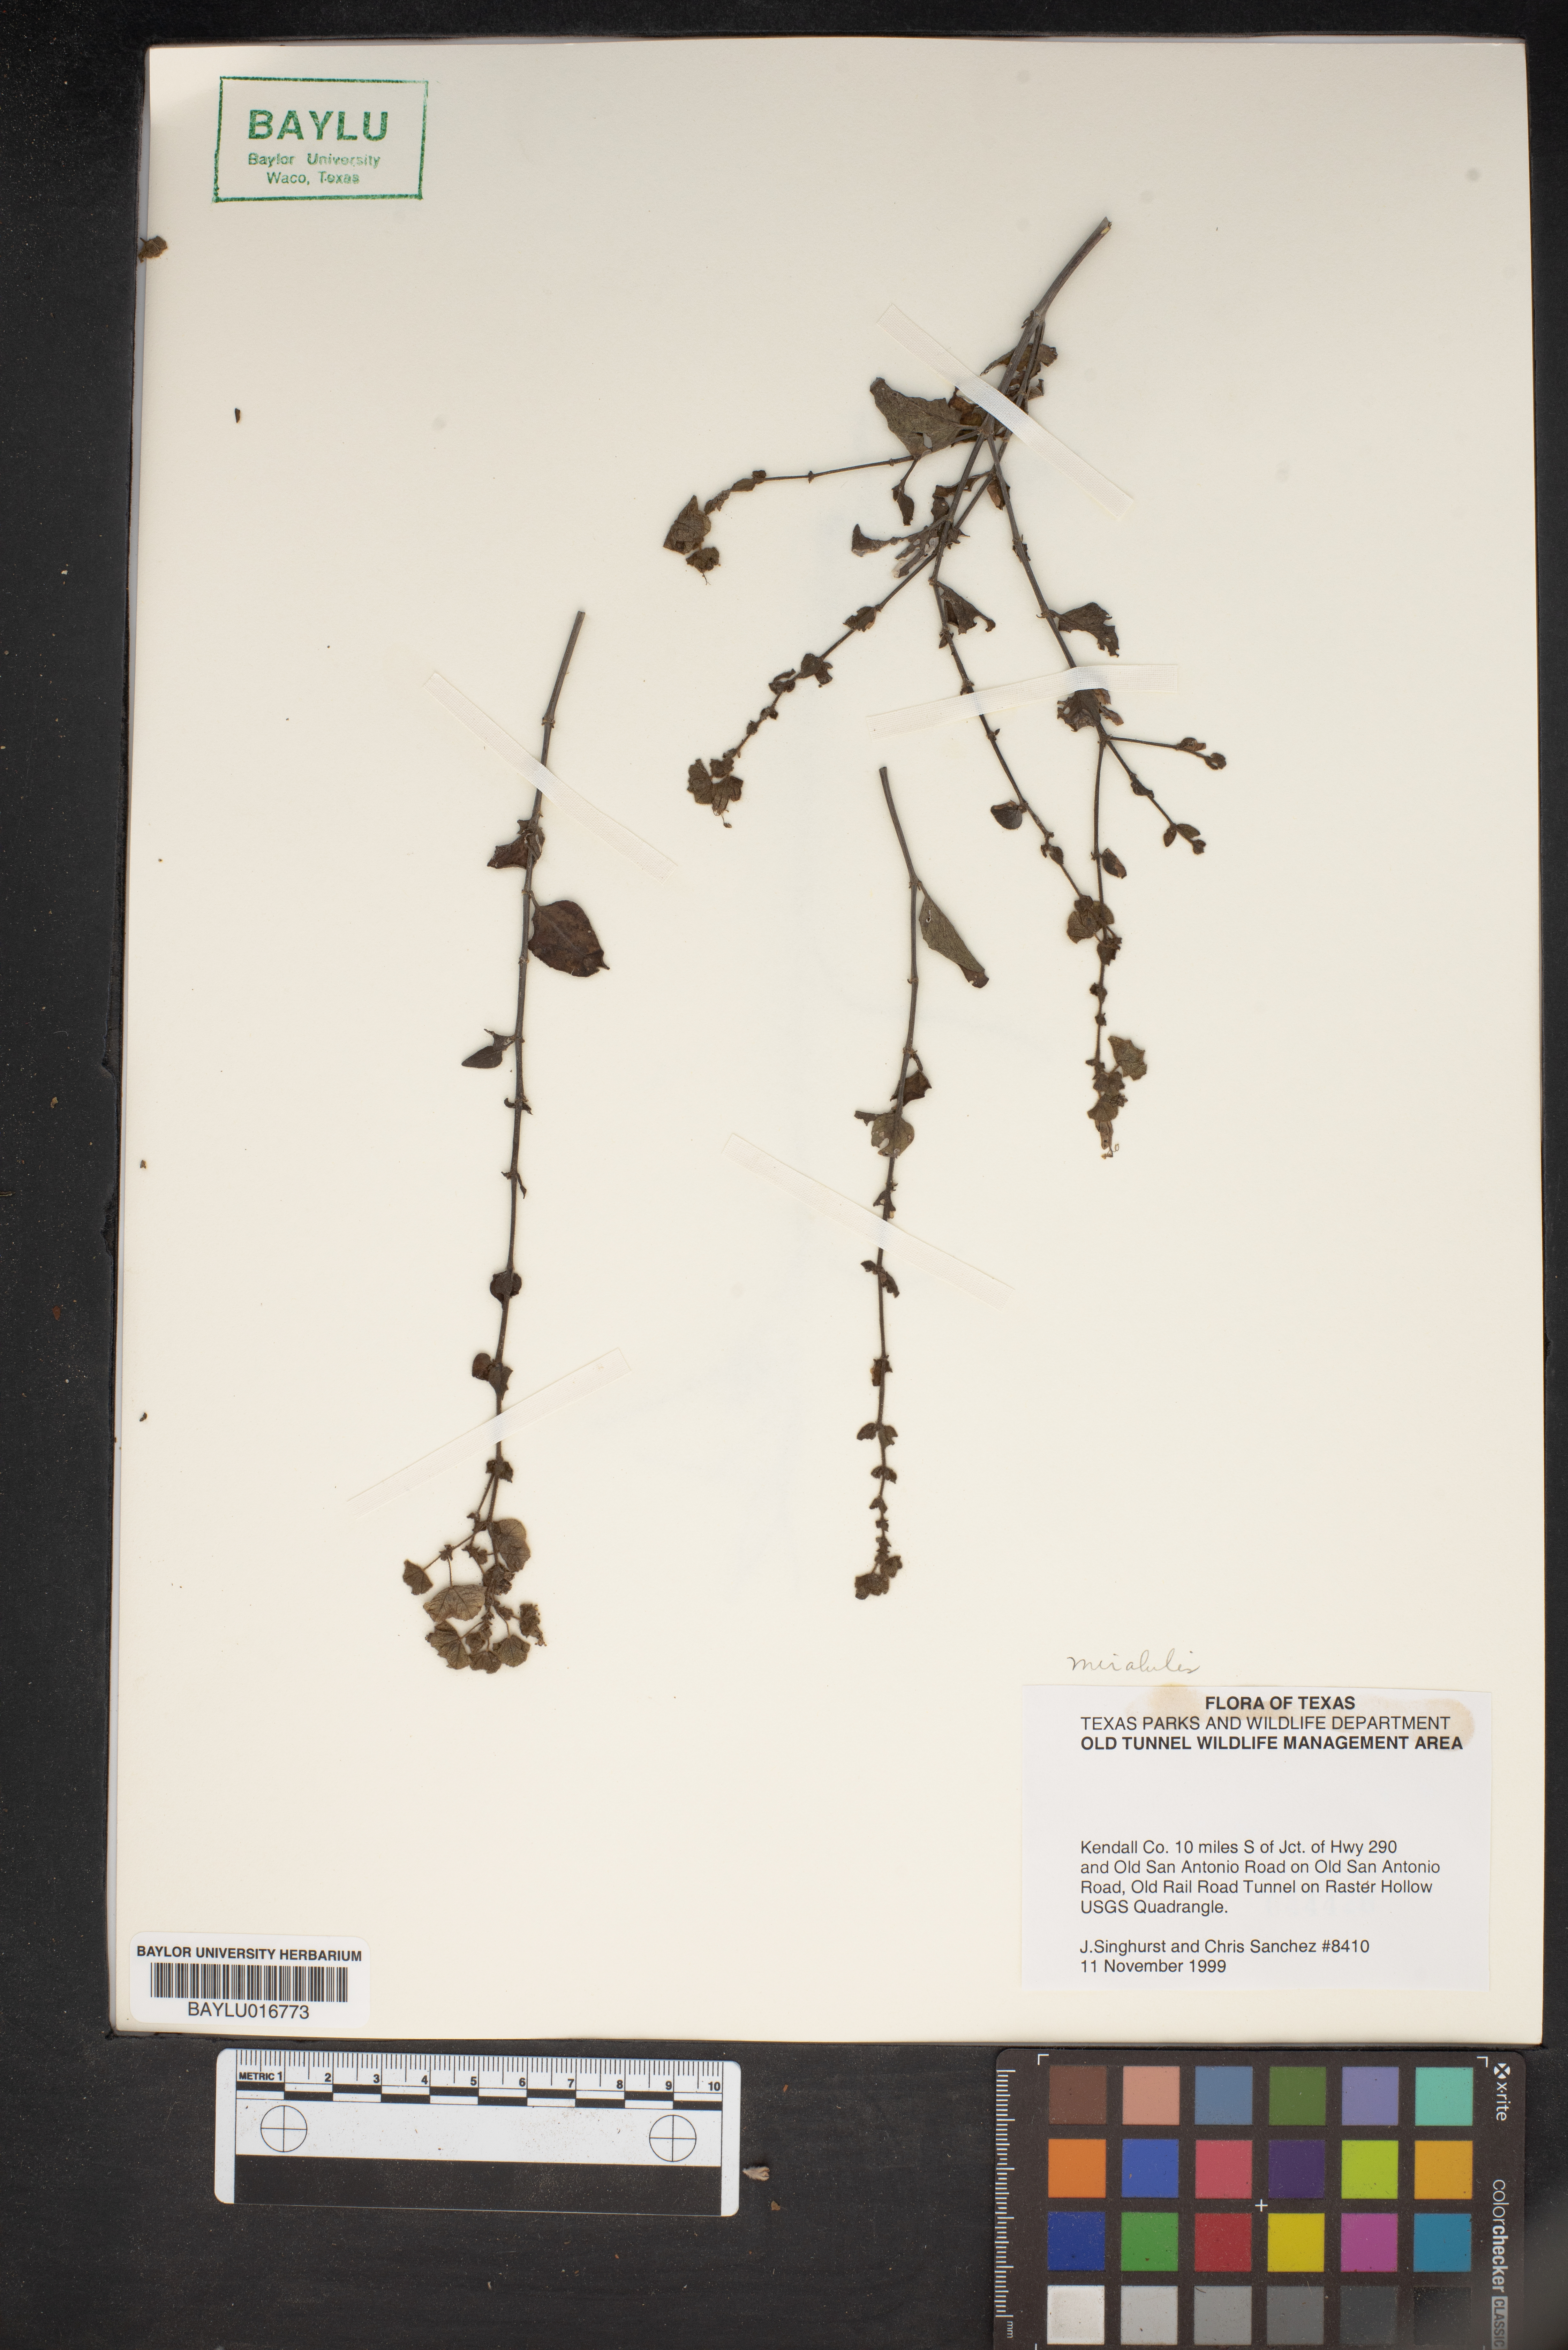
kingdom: Plantae
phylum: Tracheophyta
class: Magnoliopsida
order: Caryophyllales
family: Nyctaginaceae
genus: Mirabilis
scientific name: Mirabilis
